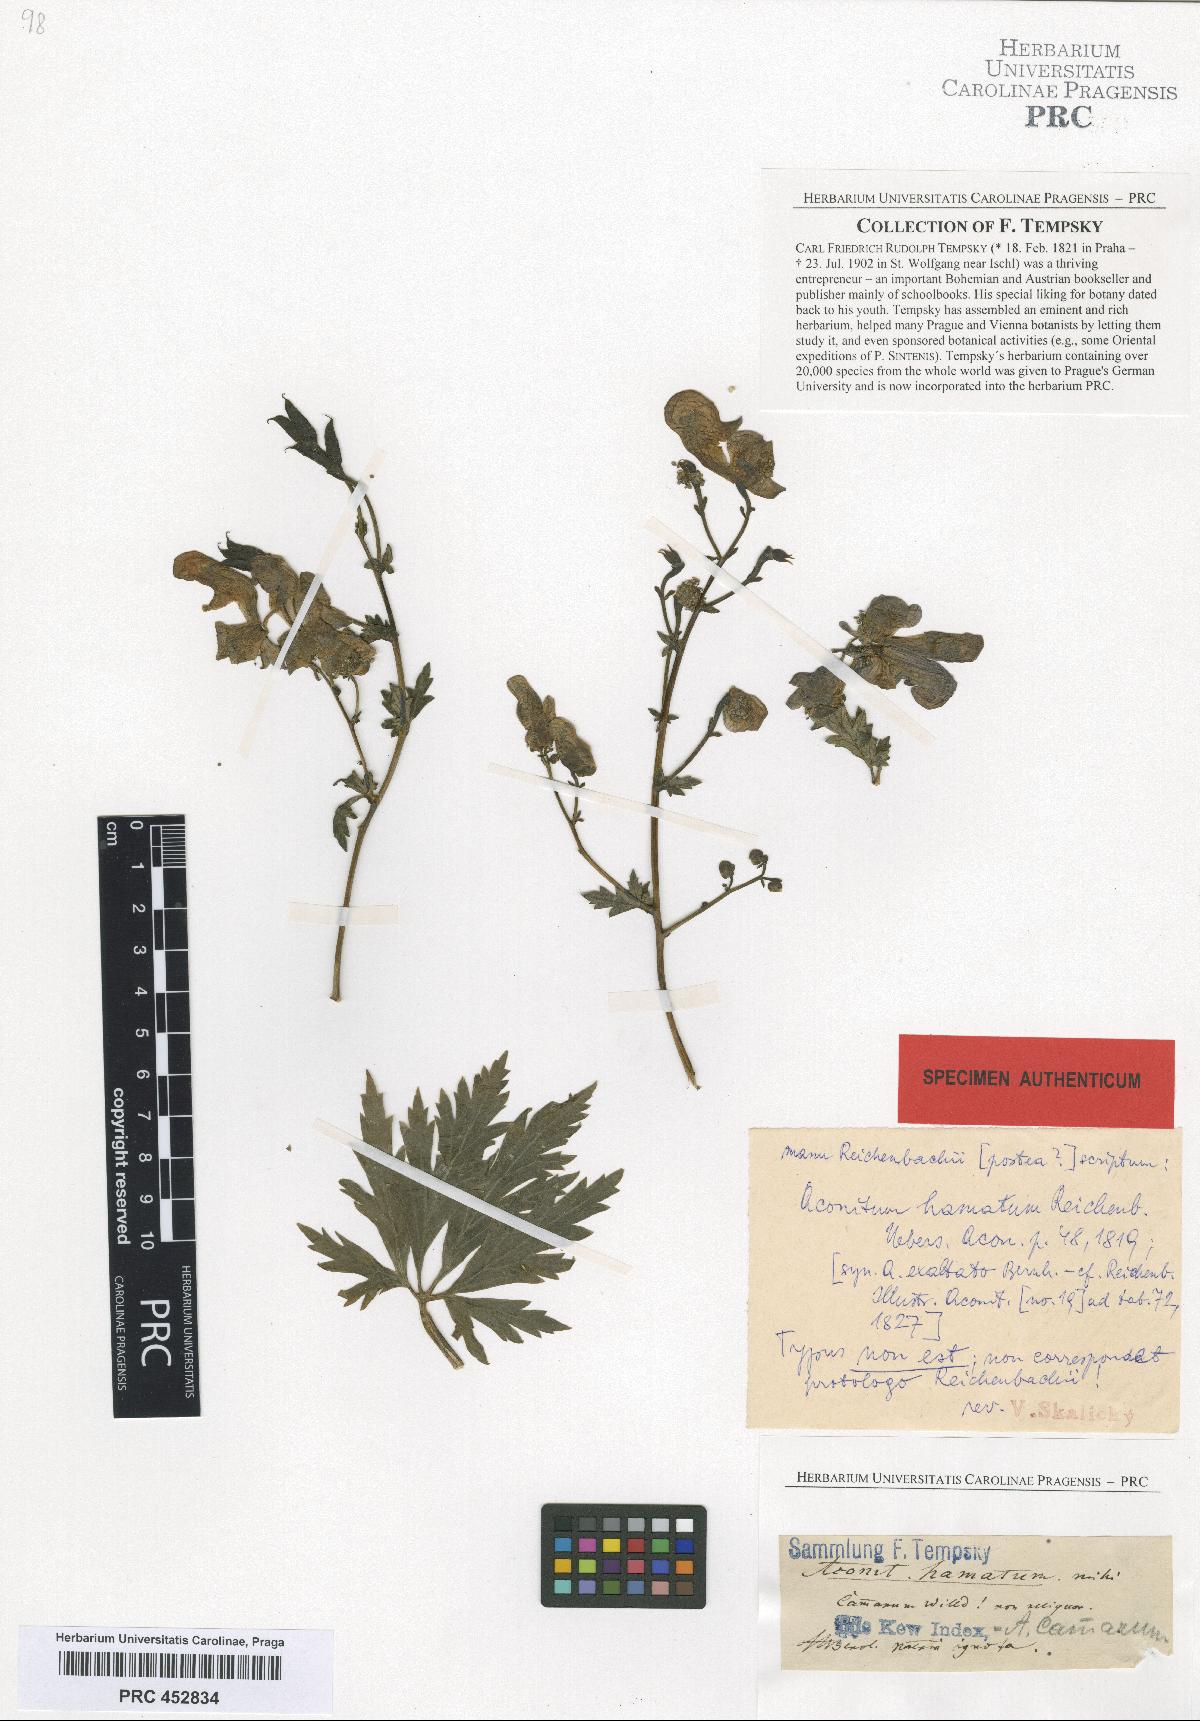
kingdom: Plantae
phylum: Tracheophyta
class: Magnoliopsida
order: Ranunculales
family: Ranunculaceae
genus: Aconitum
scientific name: Aconitum hamatum
